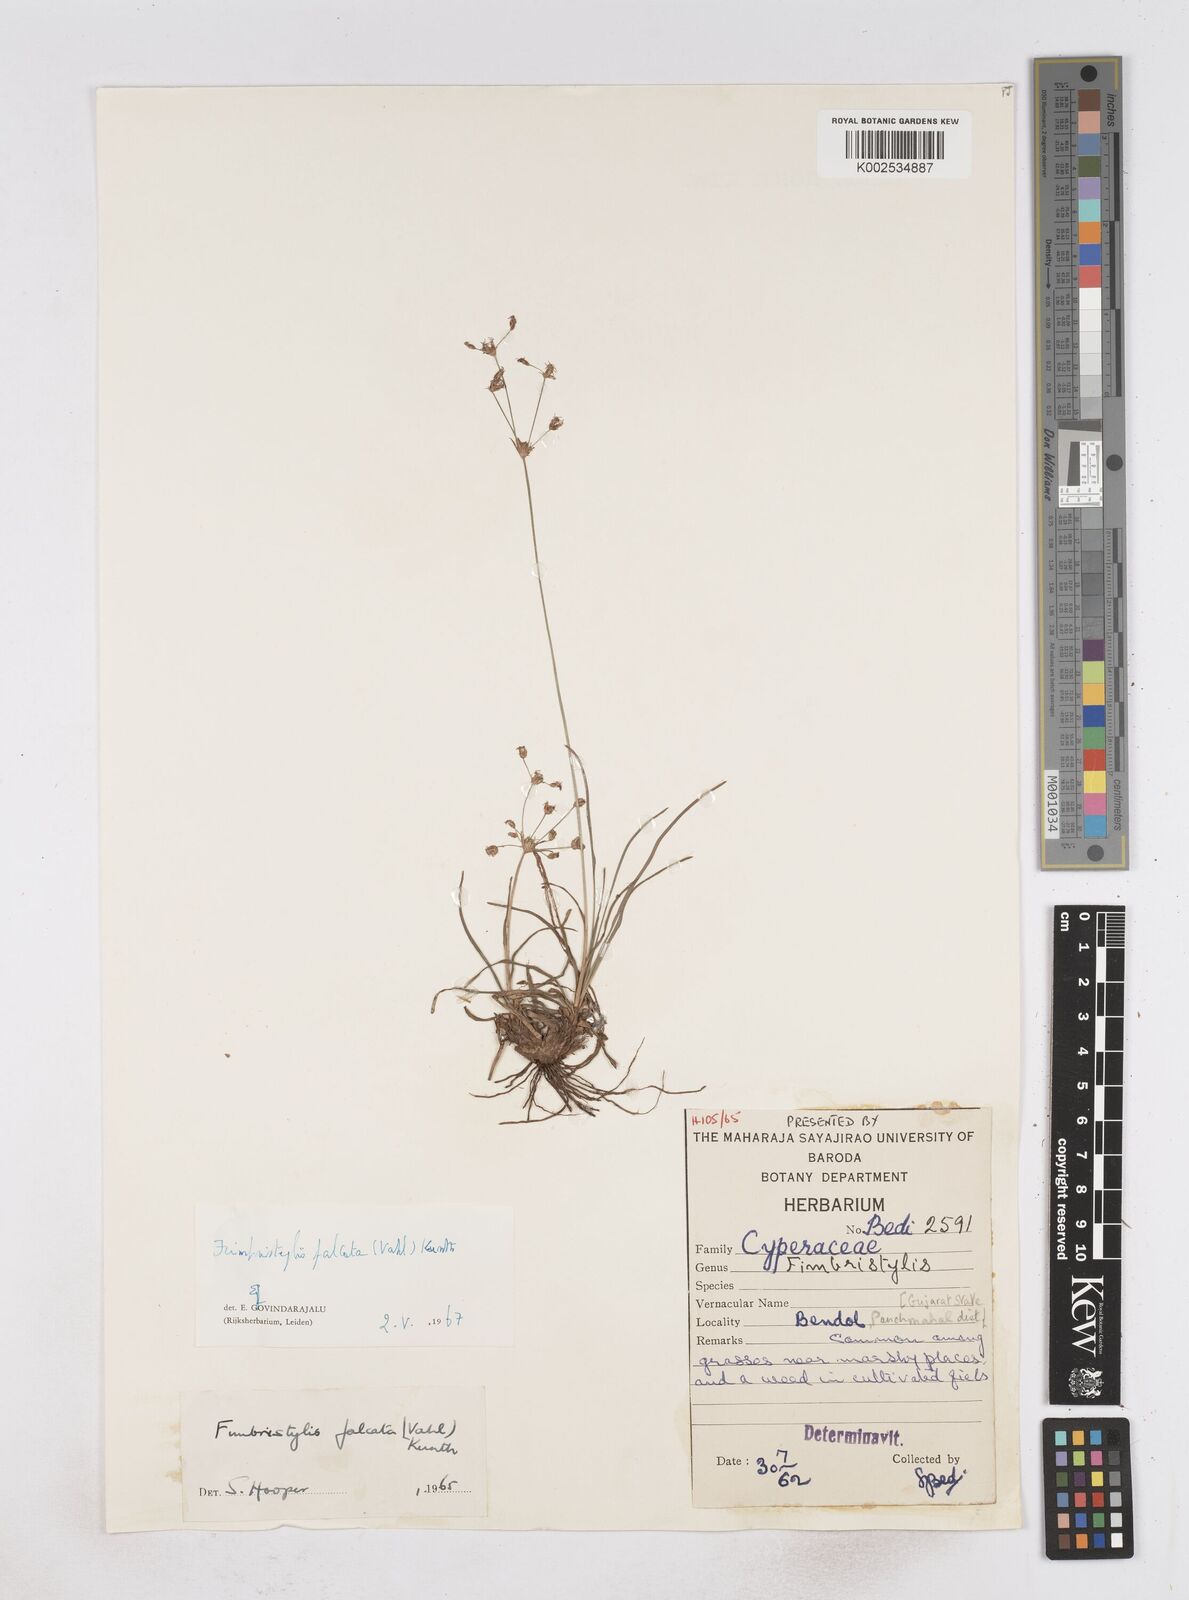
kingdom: Plantae
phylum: Tracheophyta
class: Liliopsida
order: Poales
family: Cyperaceae
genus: Fimbristylis
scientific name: Fimbristylis falcata
